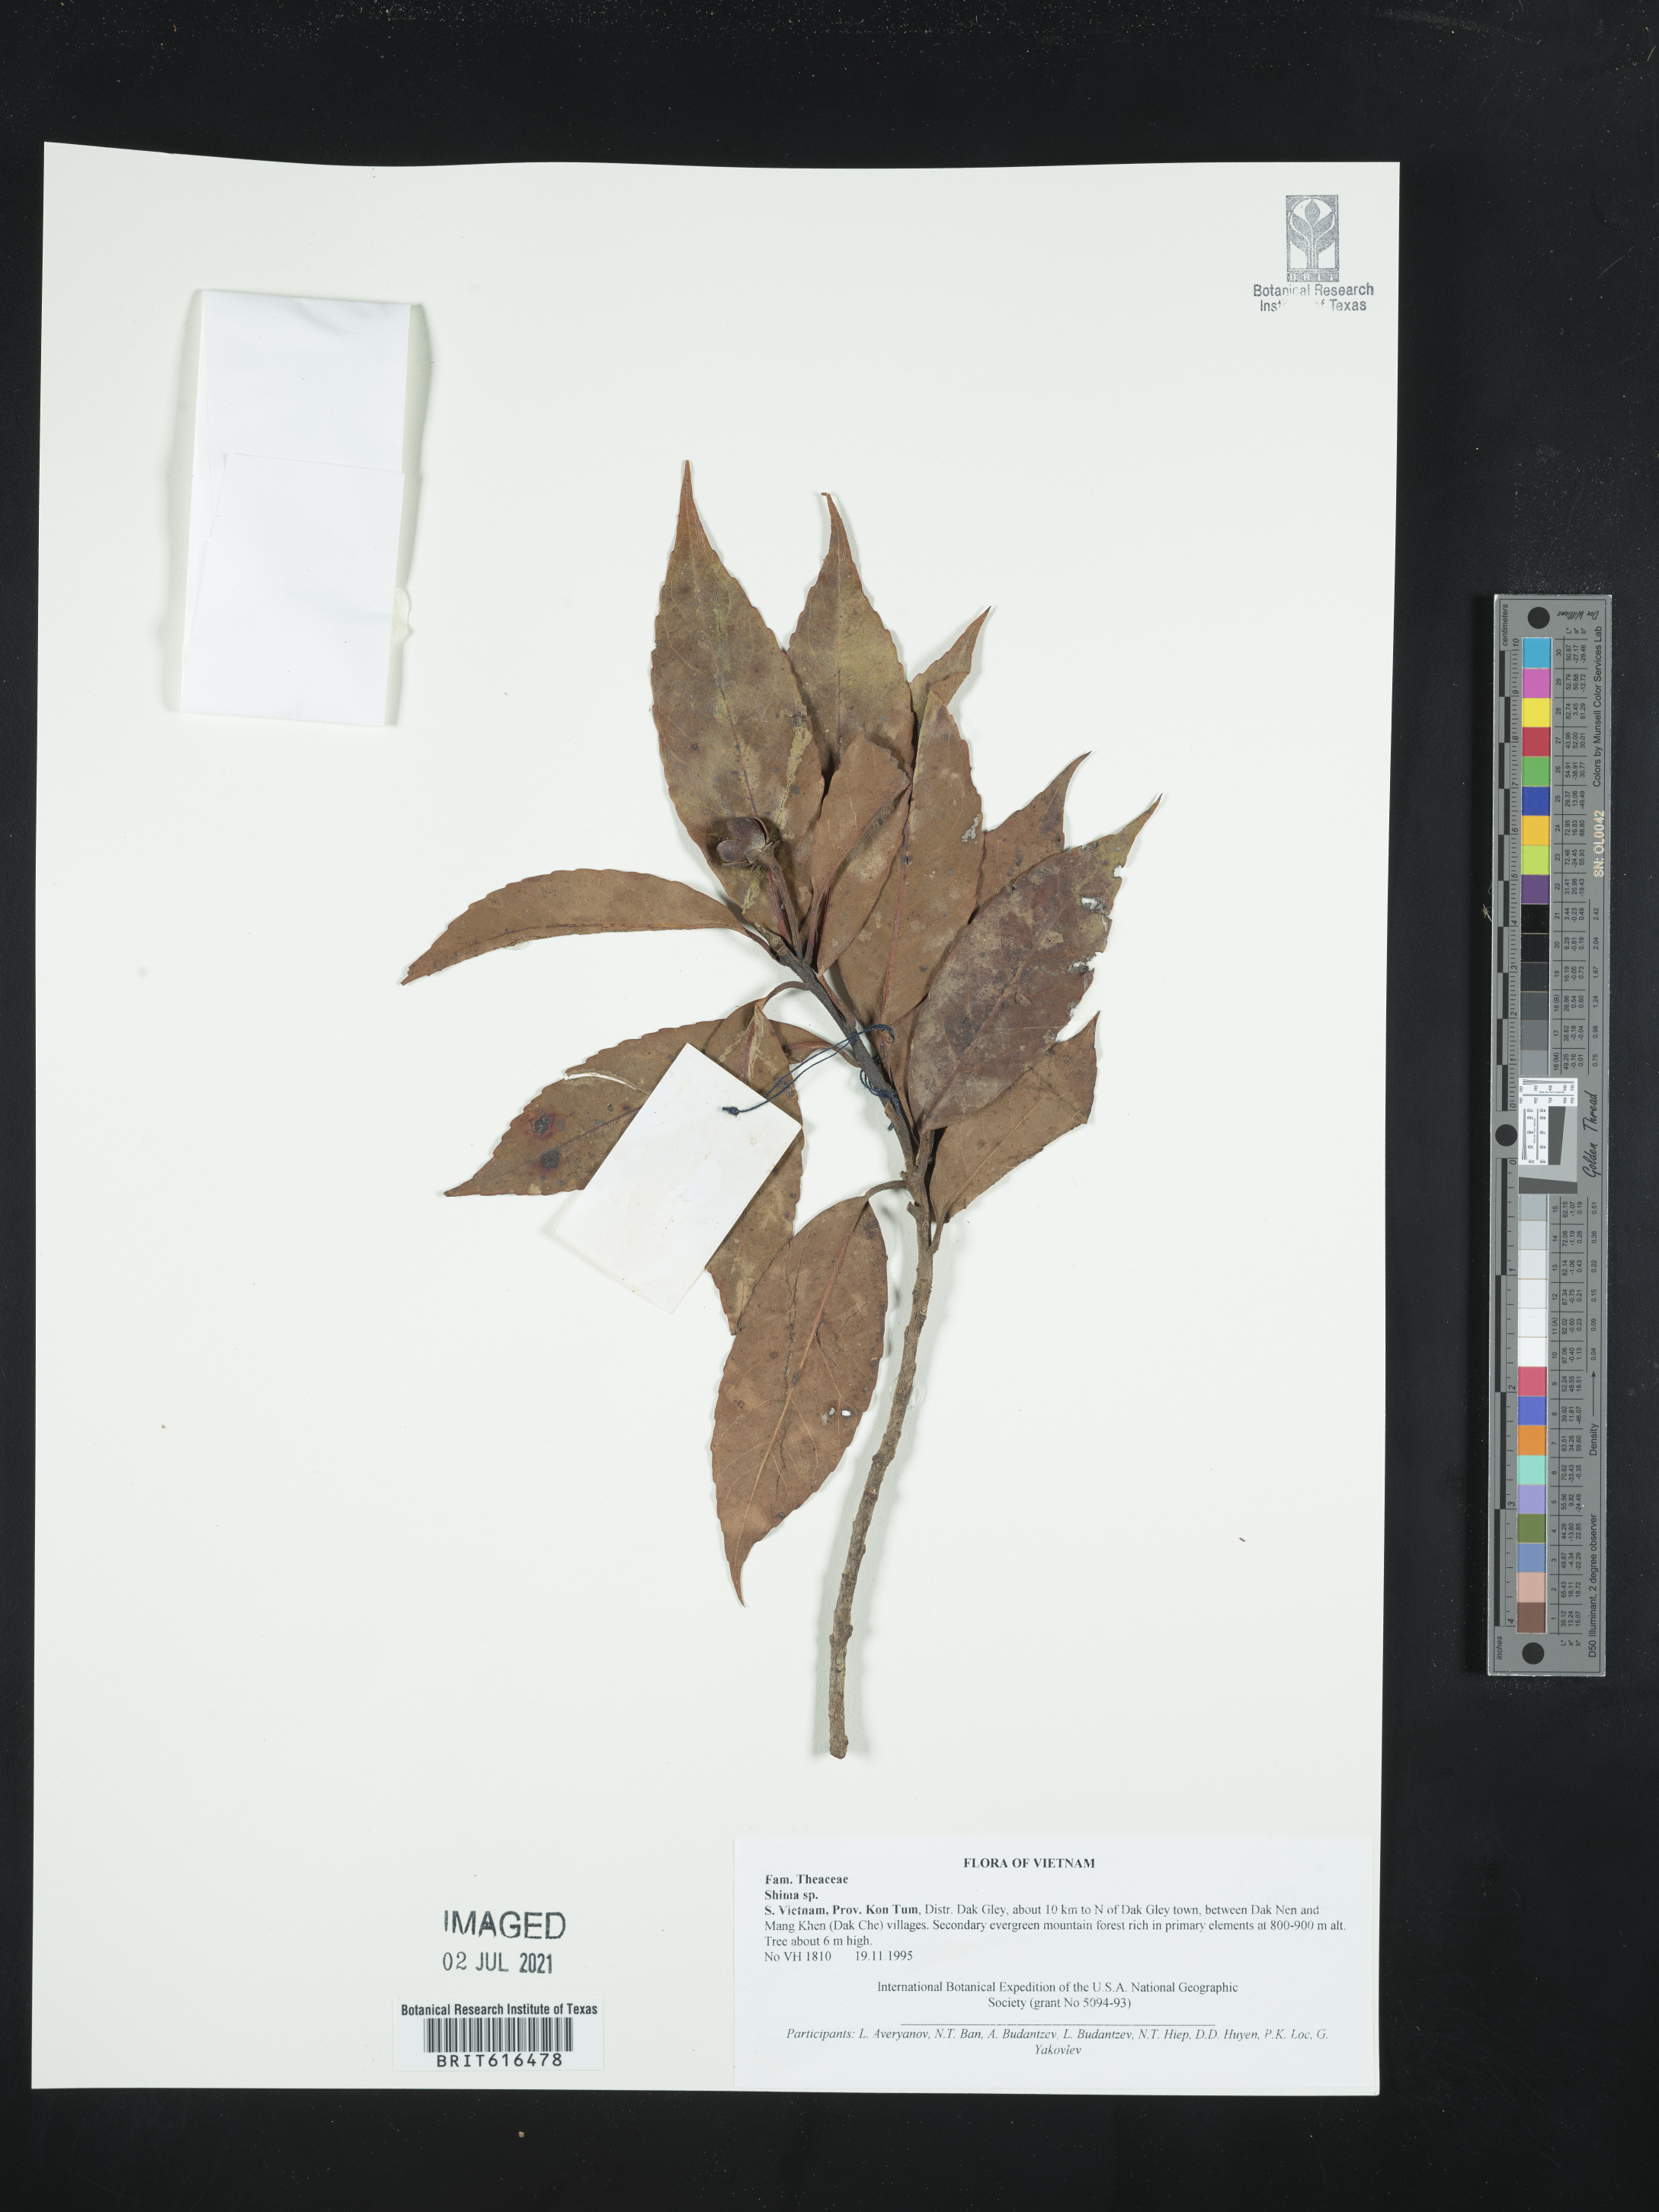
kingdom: Plantae
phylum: Tracheophyta
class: Magnoliopsida
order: Ericales
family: Theaceae
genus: Schima
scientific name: Schima
